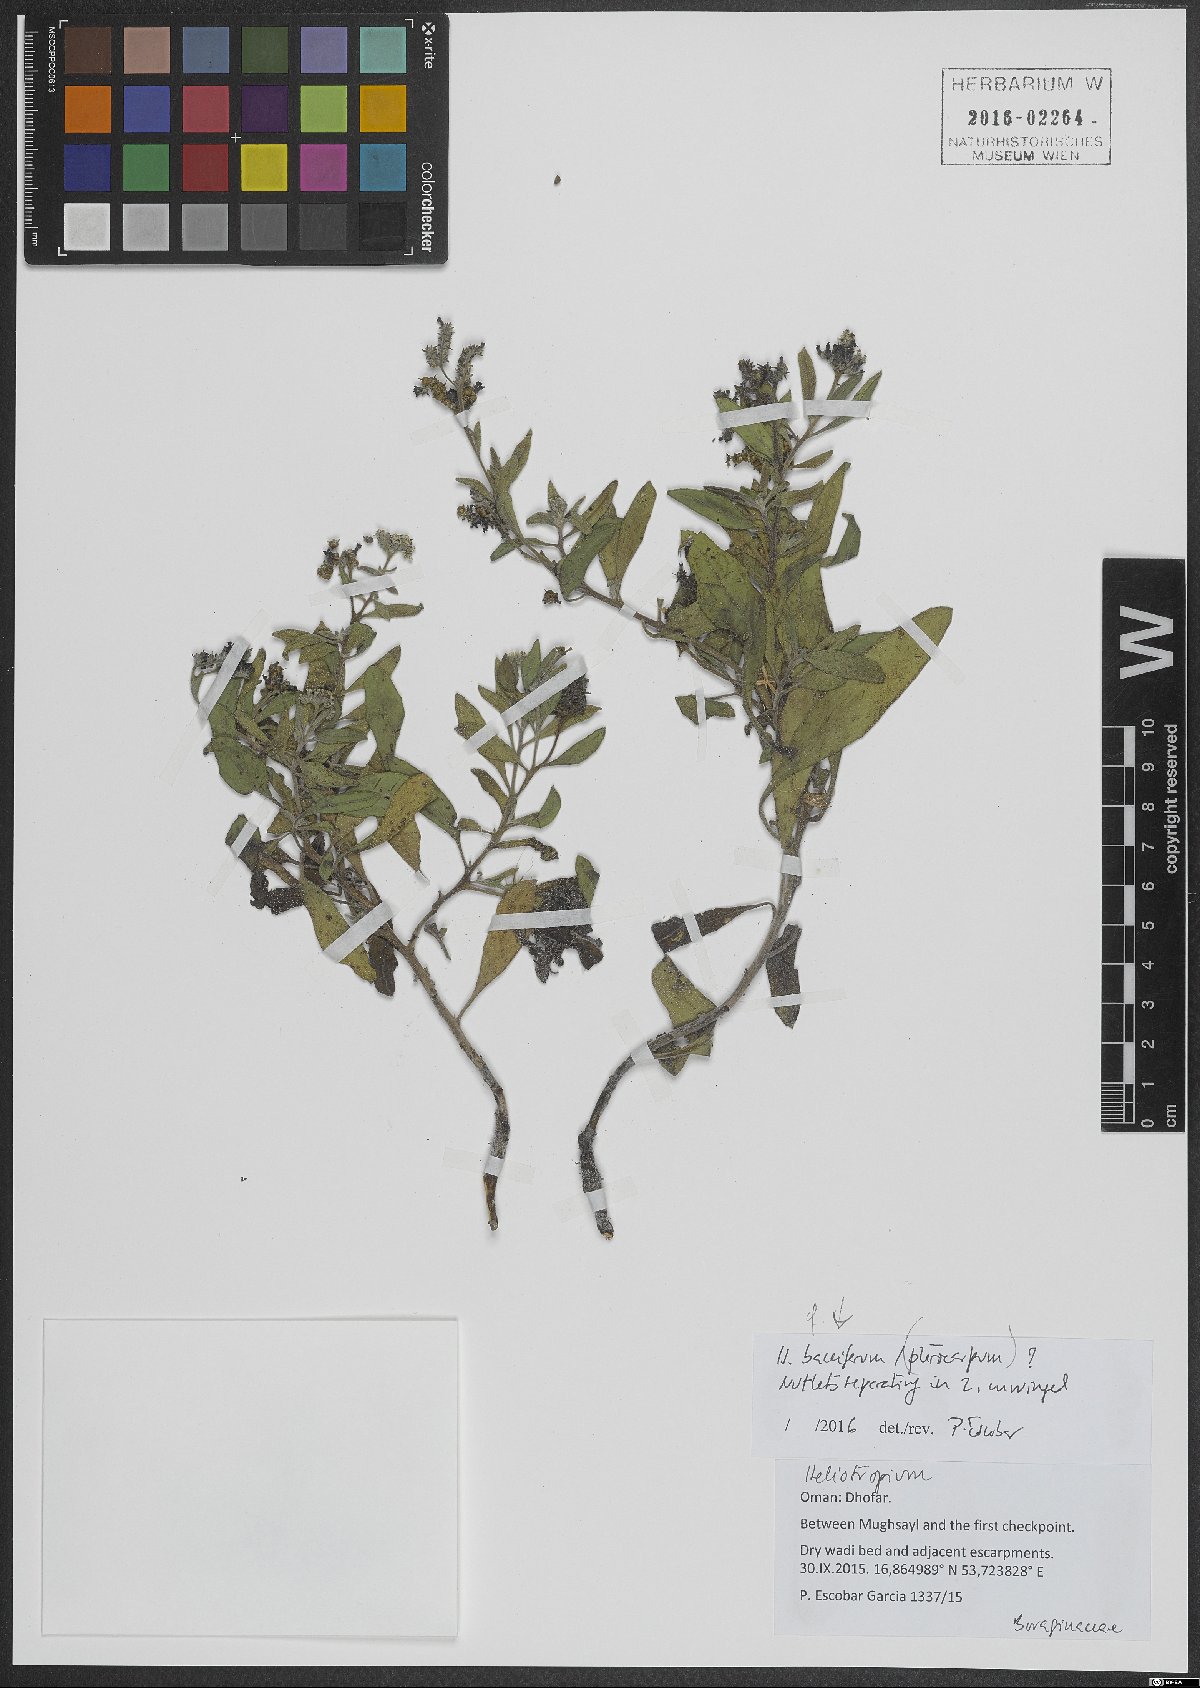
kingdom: Plantae
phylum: Tracheophyta
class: Magnoliopsida
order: Boraginales
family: Heliotropiaceae
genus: Heliotropium
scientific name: Heliotropium bacciferum
